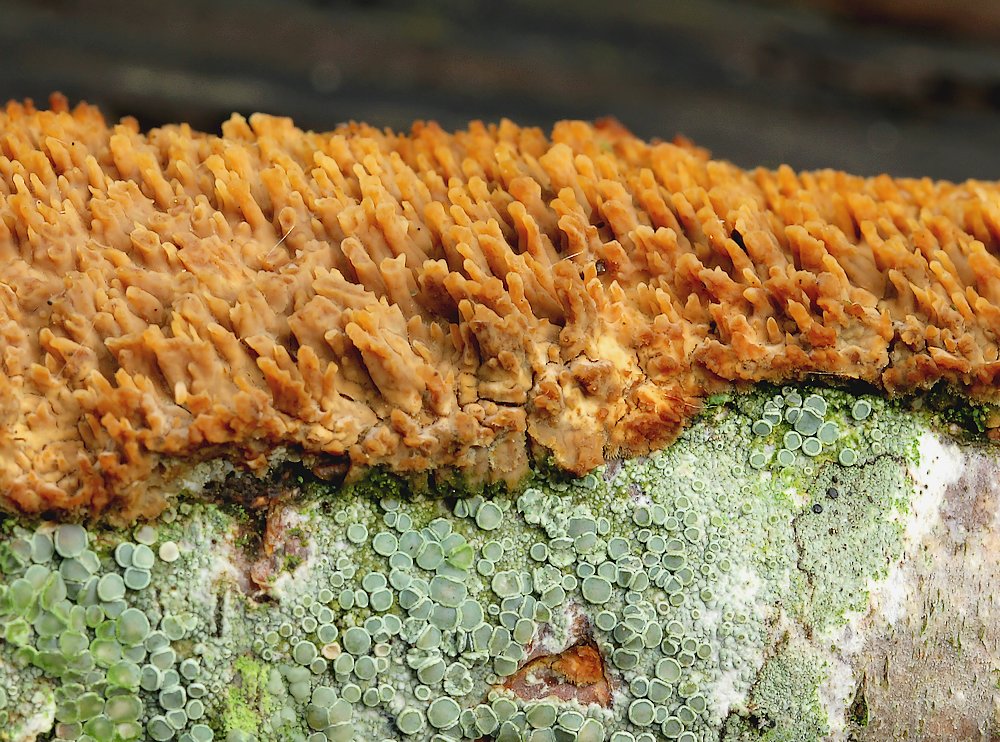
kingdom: Fungi
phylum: Basidiomycota
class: Agaricomycetes
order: Agaricales
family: Radulomycetaceae
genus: Radulomyces
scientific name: Radulomyces molaris
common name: tandet naftalinskind
